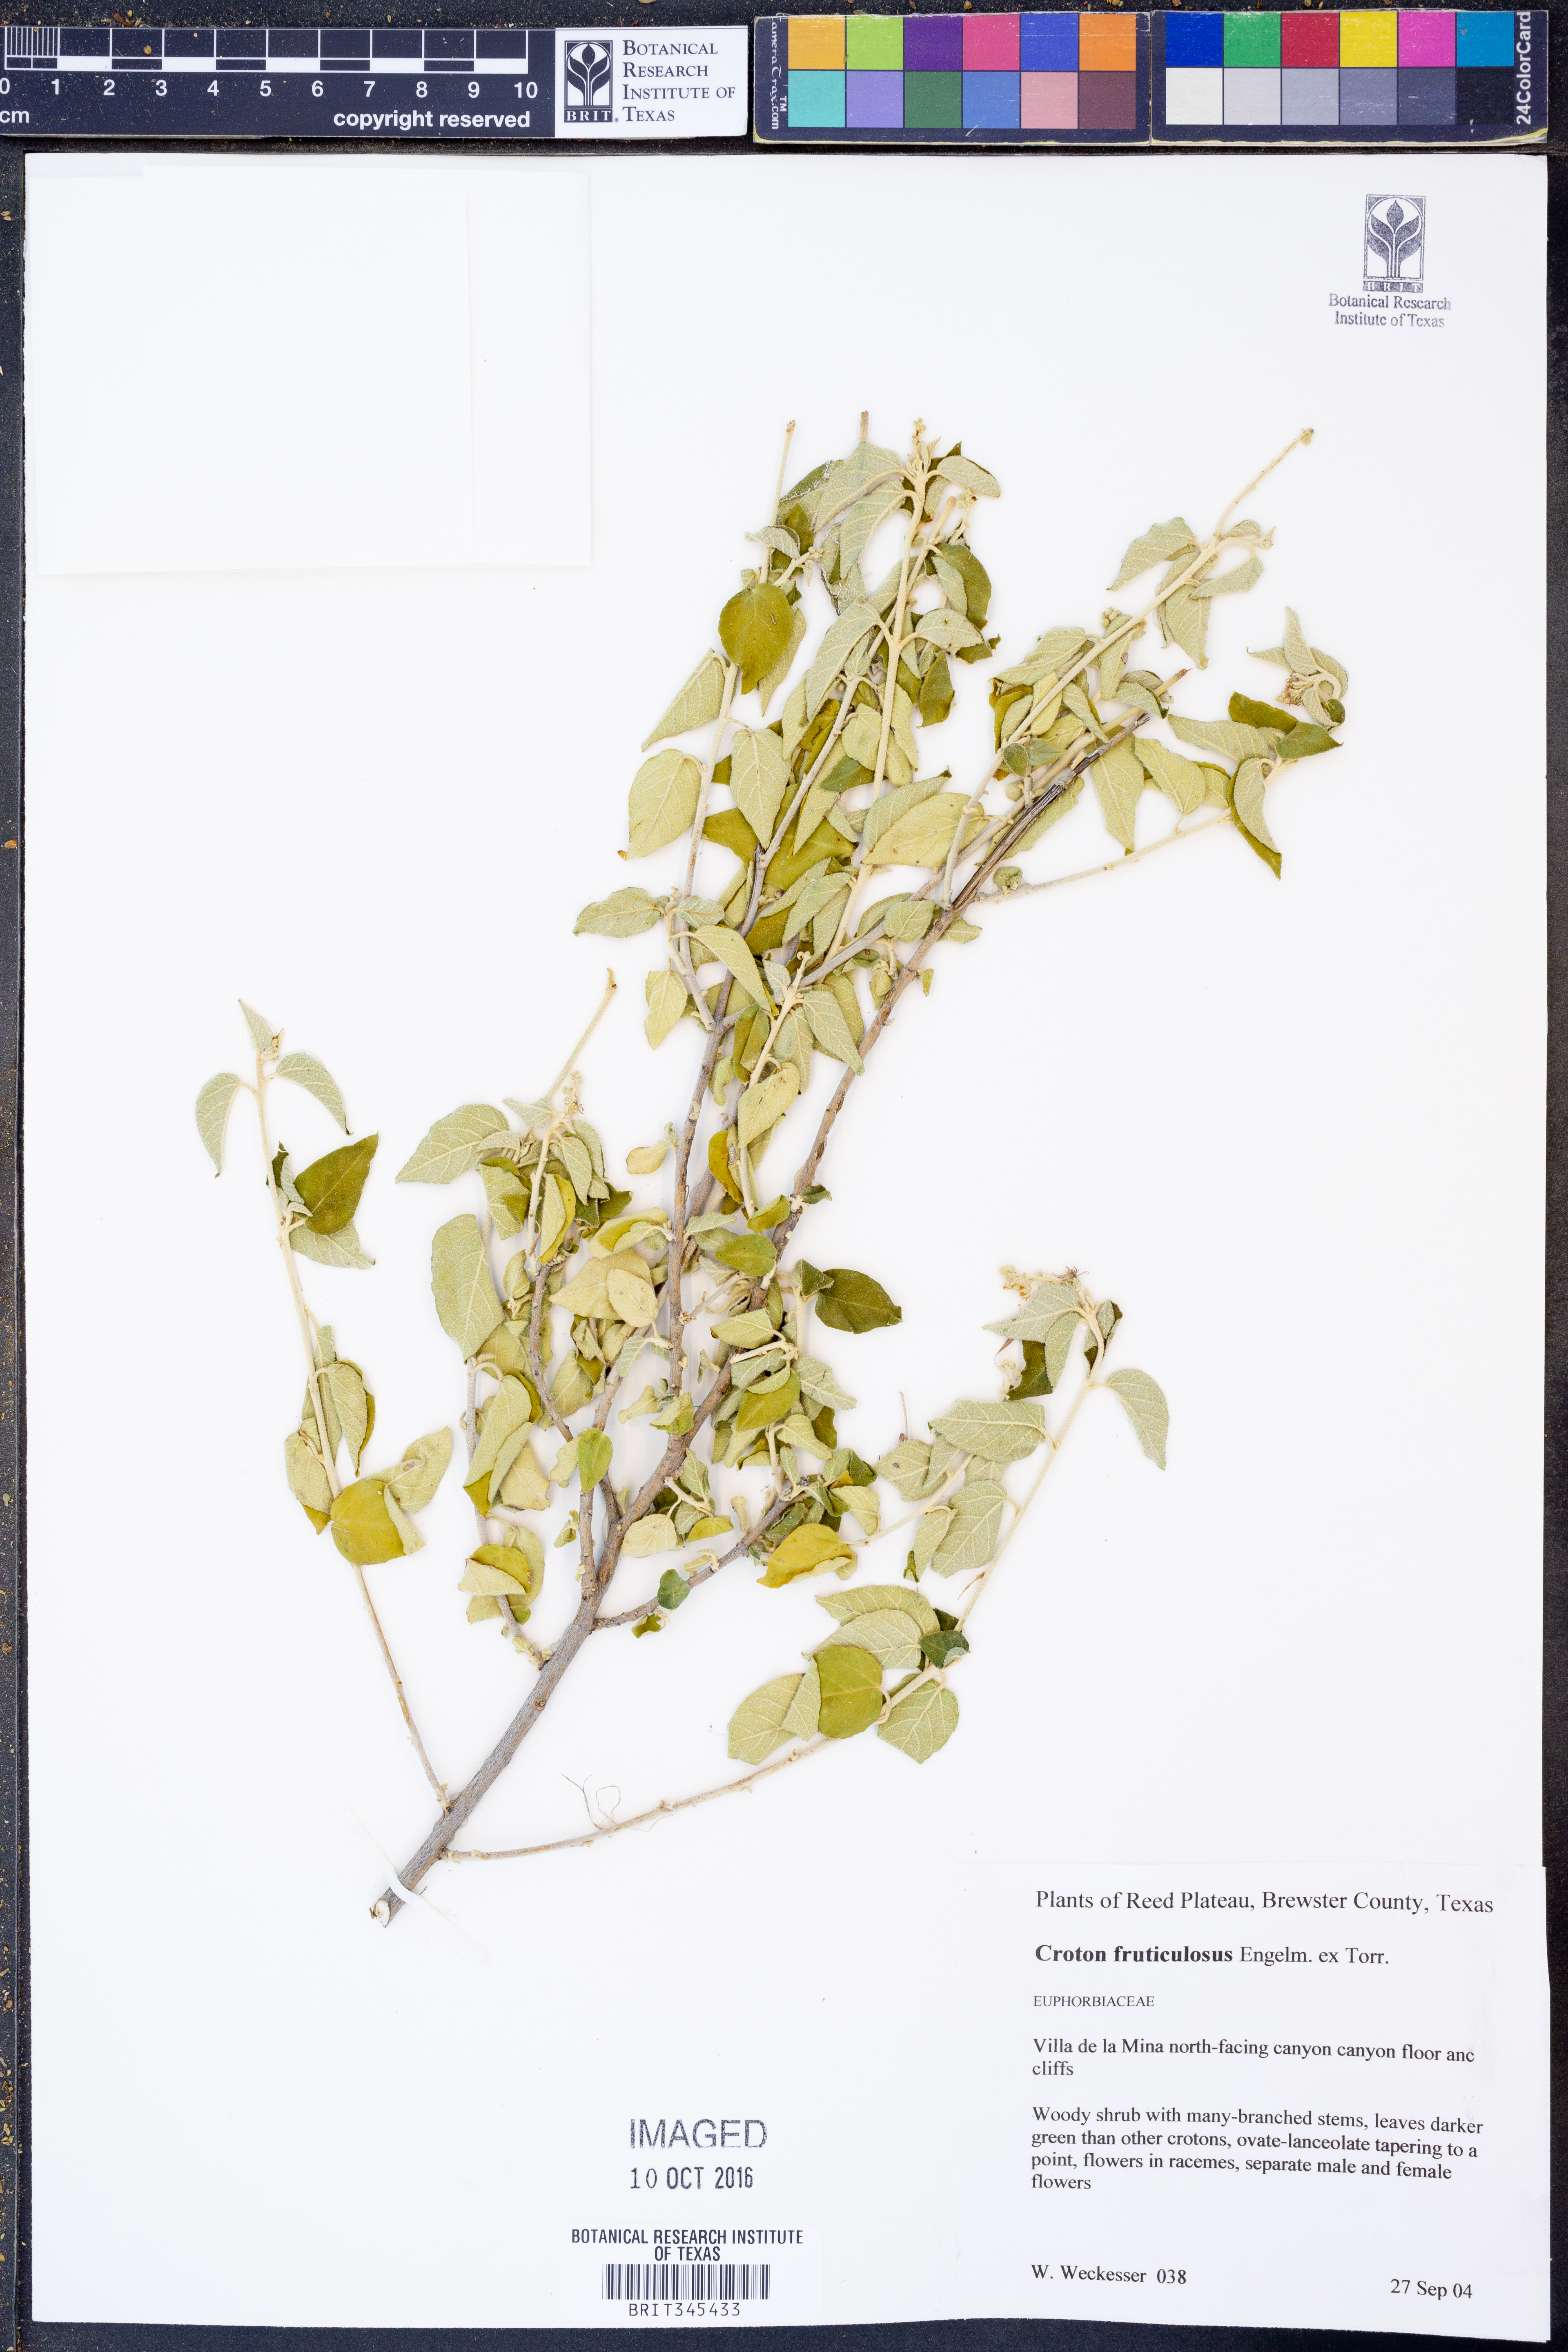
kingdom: Plantae
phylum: Tracheophyta
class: Magnoliopsida
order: Malpighiales
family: Euphorbiaceae
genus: Croton
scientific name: Croton fruticulosus
